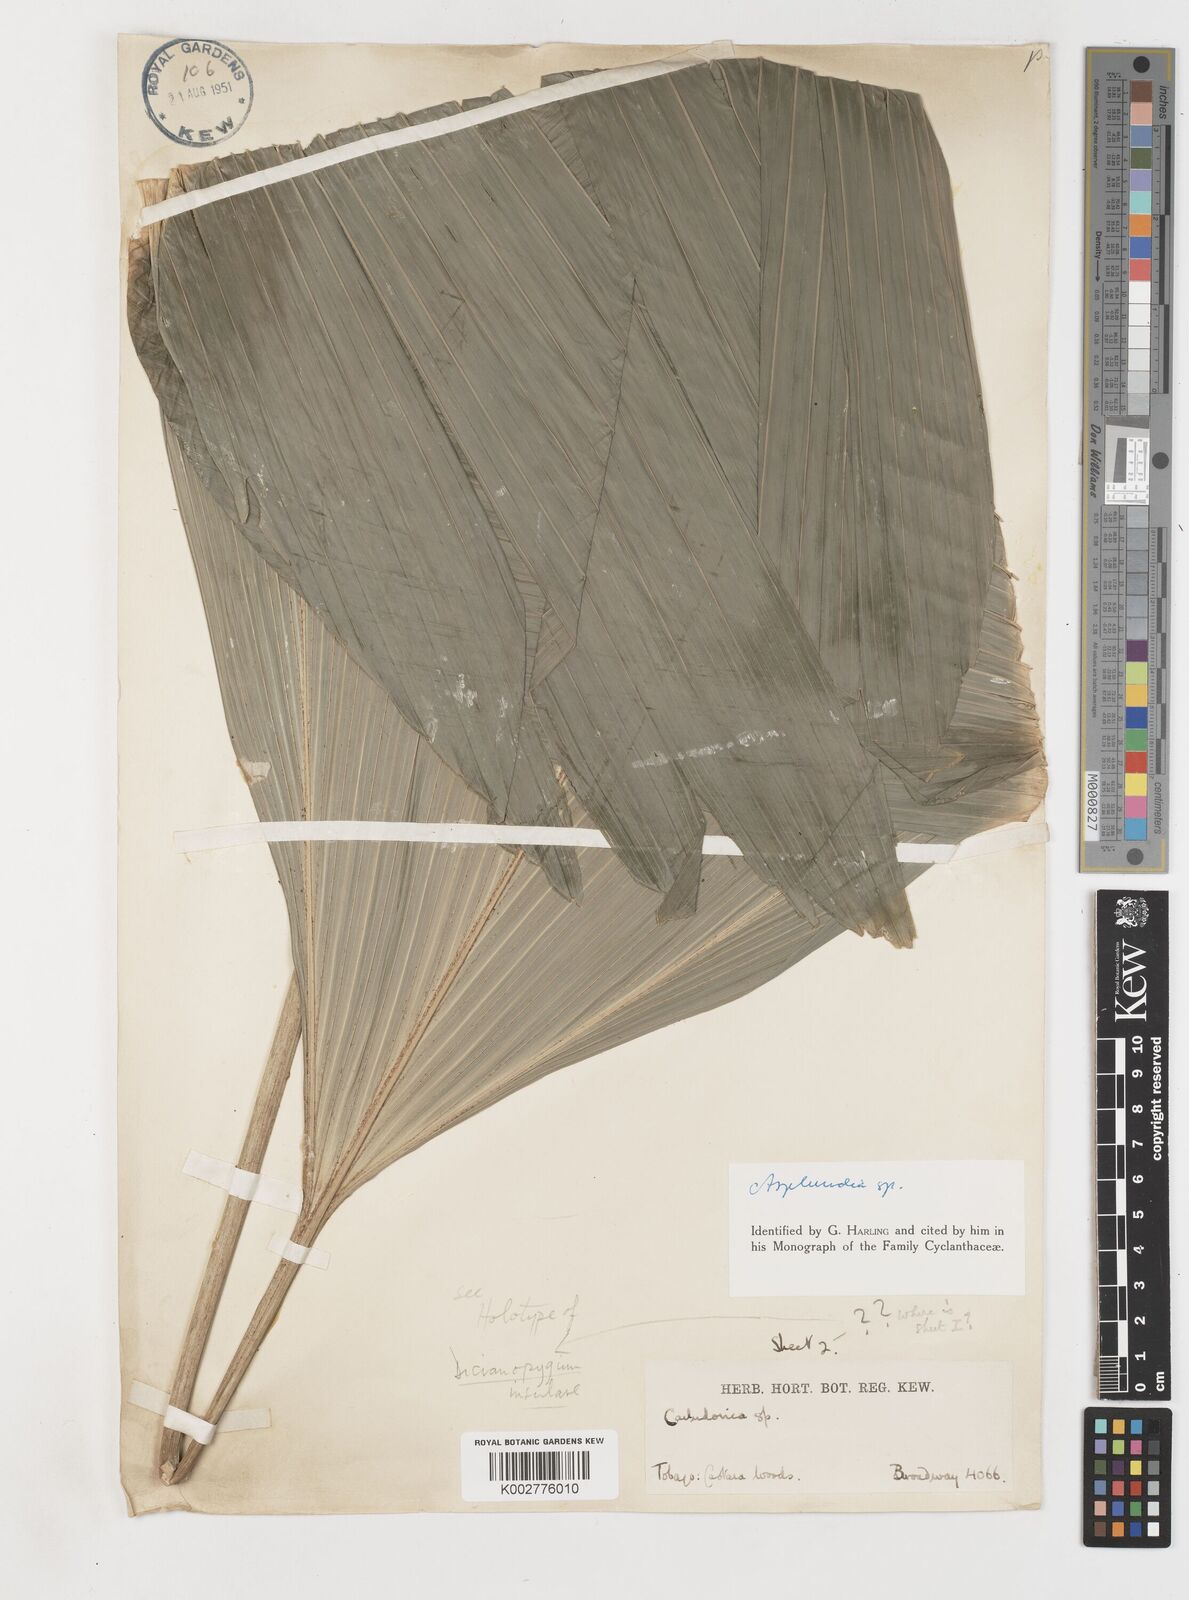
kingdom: Plantae
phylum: Tracheophyta
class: Liliopsida
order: Pandanales
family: Cyclanthaceae
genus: Asplundia
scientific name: Asplundia
